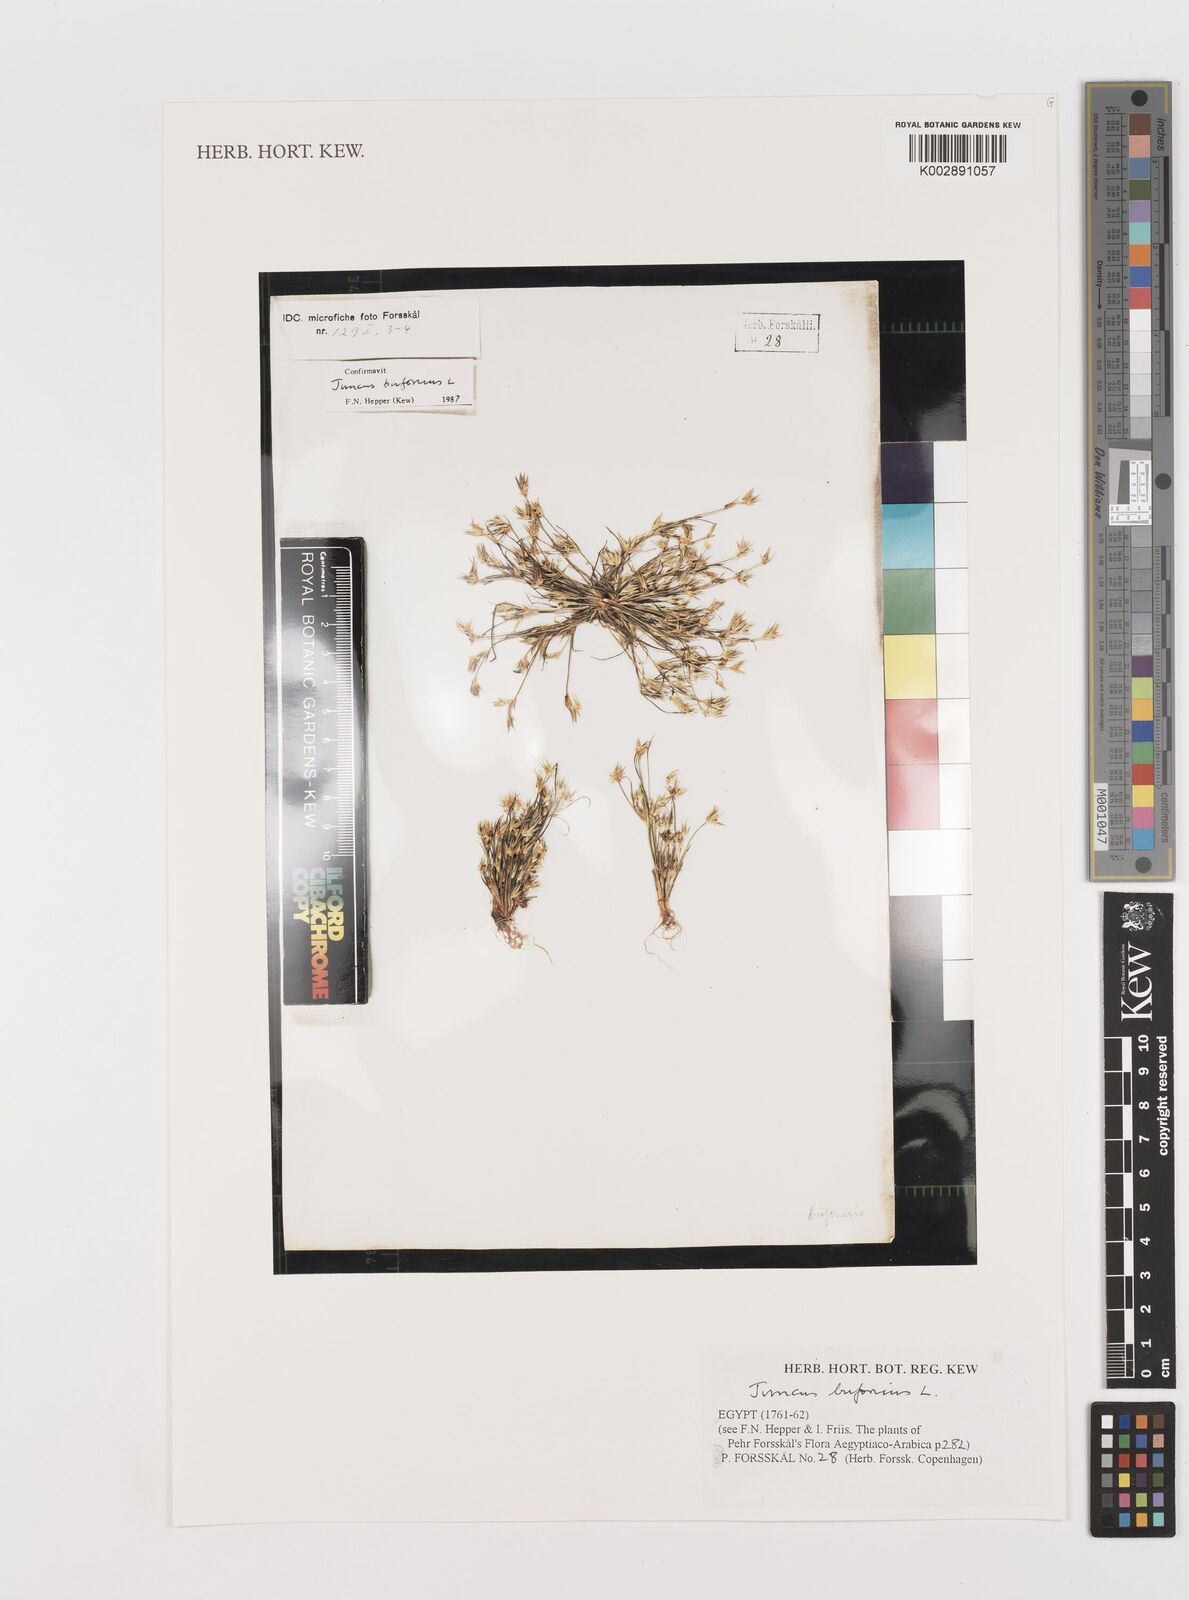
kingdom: Plantae
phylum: Tracheophyta
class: Liliopsida
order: Poales
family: Juncaceae
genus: Juncus
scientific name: Juncus bufonius
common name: Toad rush
